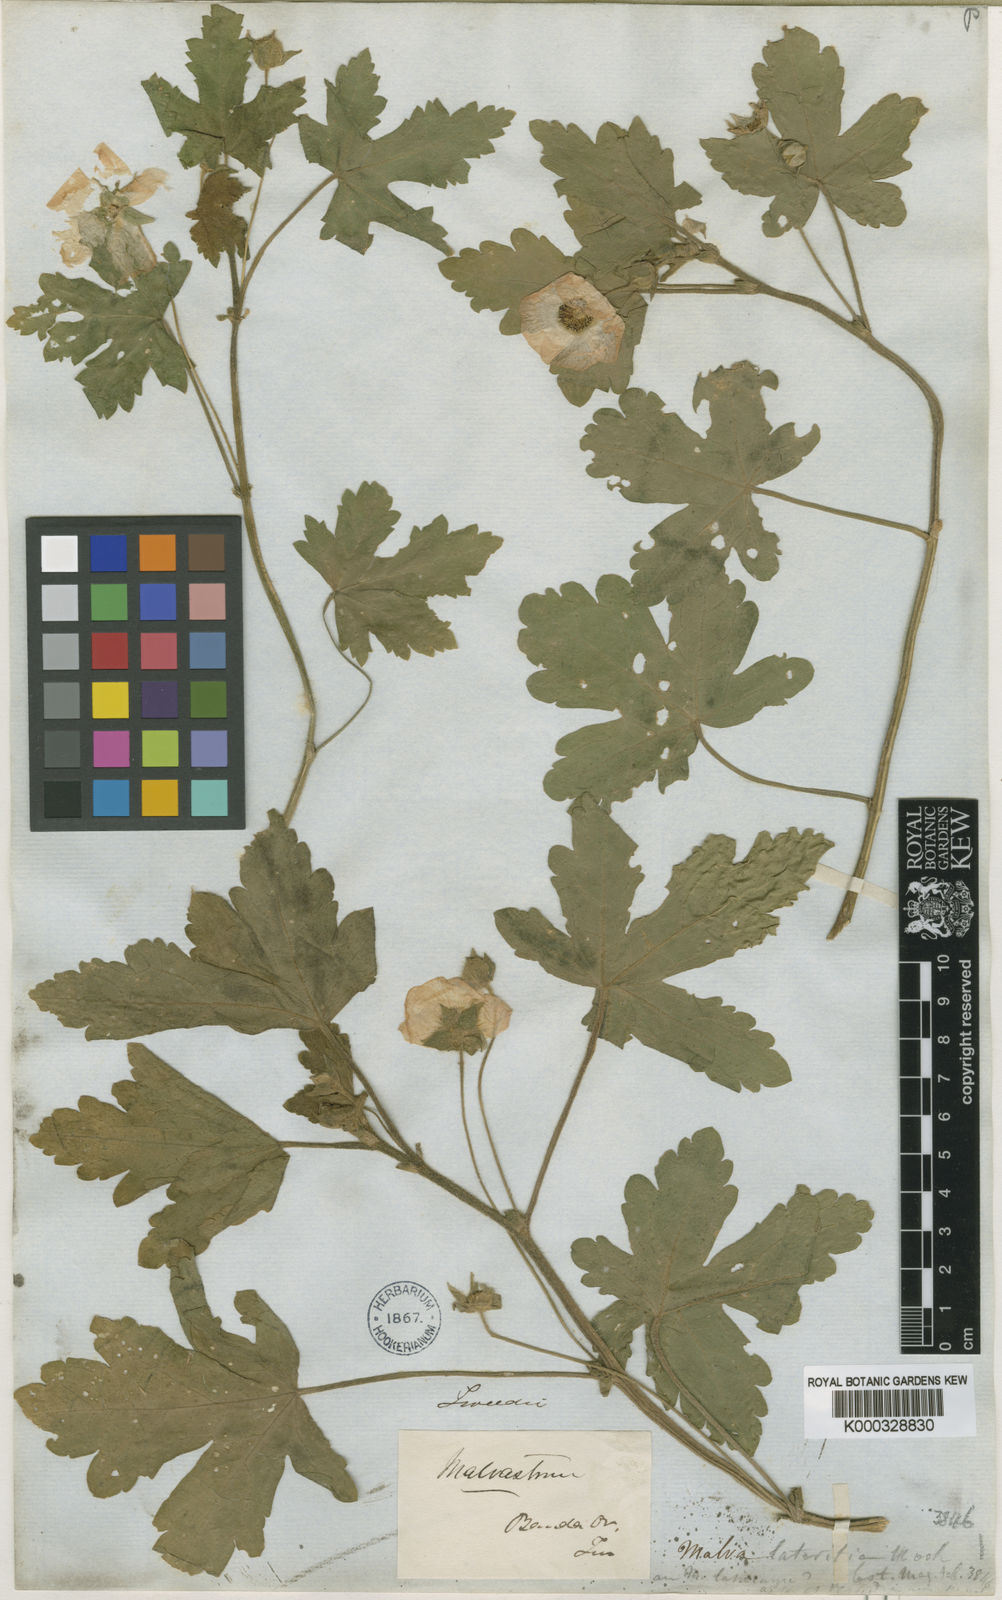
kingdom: Plantae
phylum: Tracheophyta
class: Magnoliopsida
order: Malvales
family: Malvaceae
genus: Modiolastrum
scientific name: Modiolastrum lateritium
